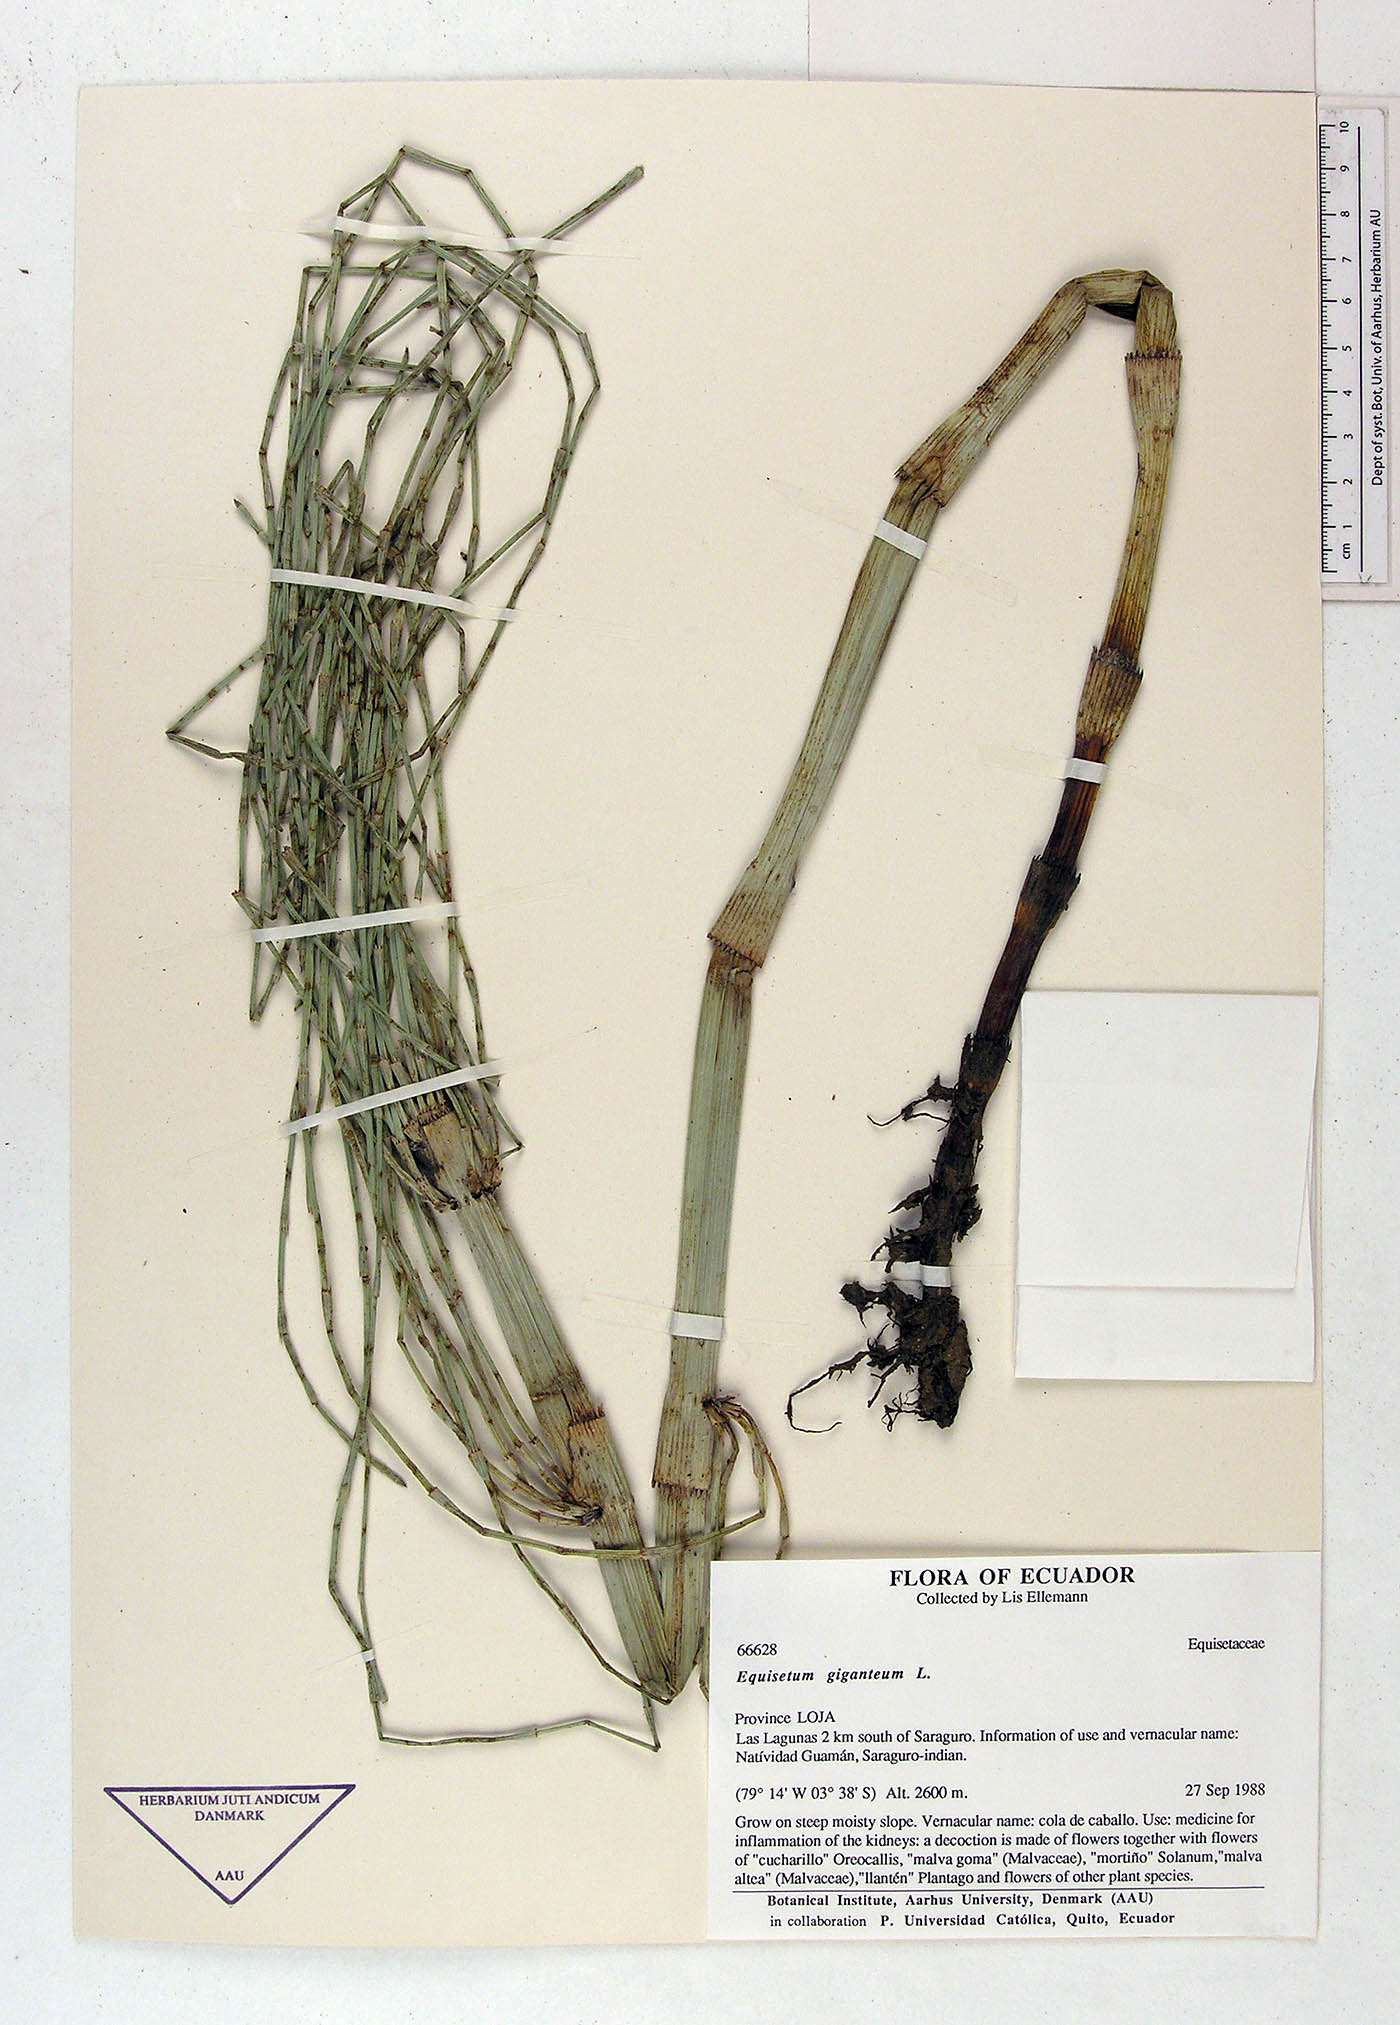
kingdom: Plantae
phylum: Tracheophyta
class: Polypodiopsida
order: Equisetales
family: Equisetaceae
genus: Equisetum
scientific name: Equisetum giganteum
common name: Giant horsetail
